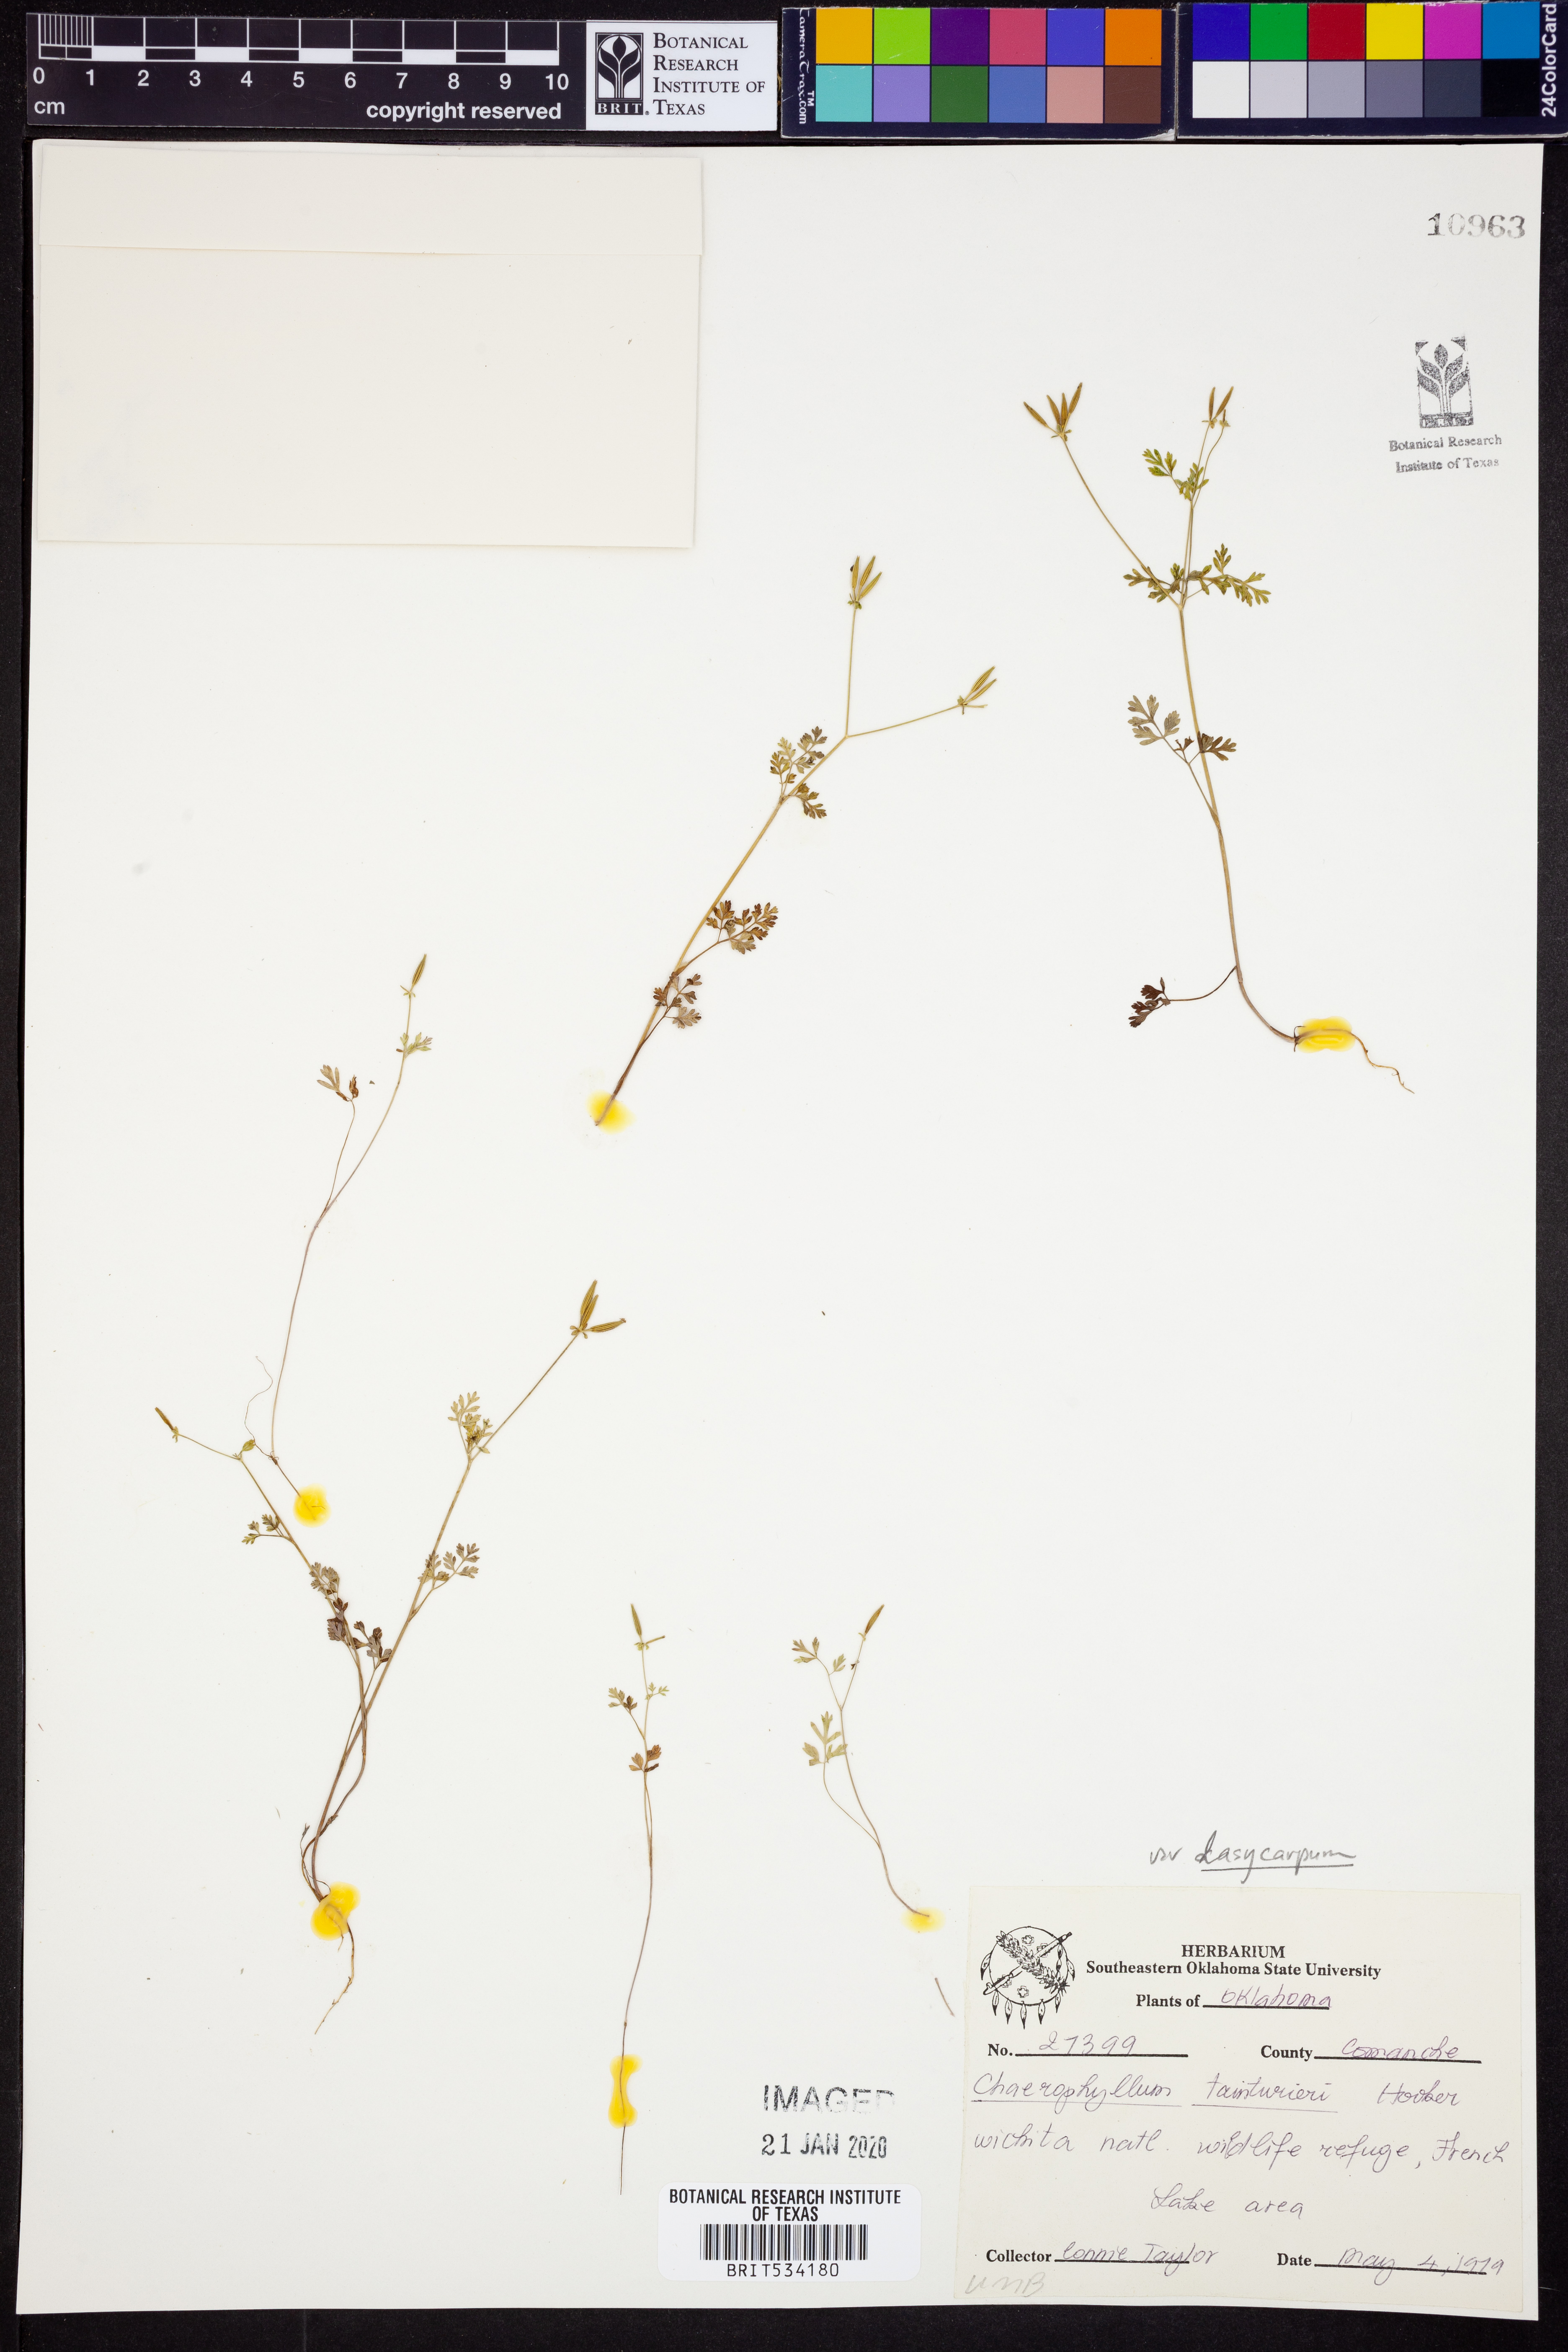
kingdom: Plantae
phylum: Tracheophyta
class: Magnoliopsida
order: Apiales
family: Apiaceae
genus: Chaerophyllum
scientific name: Chaerophyllum dasycarpum
